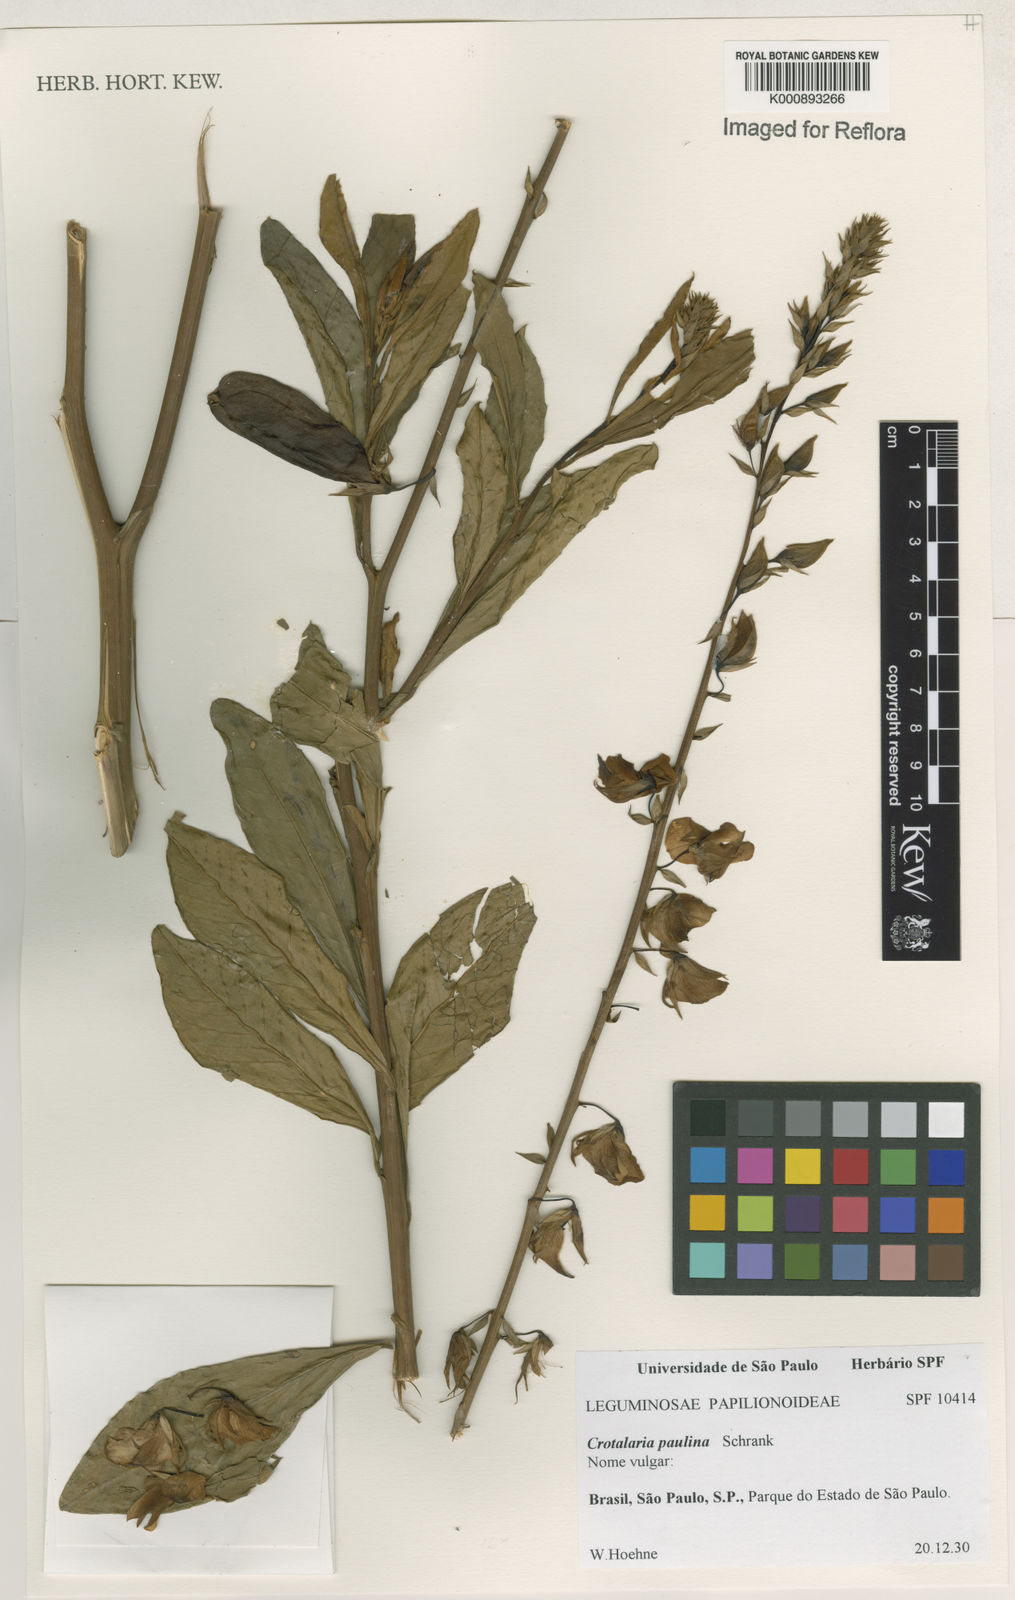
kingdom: Plantae
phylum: Tracheophyta
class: Magnoliopsida
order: Fabales
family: Fabaceae
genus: Crotalaria
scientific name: Crotalaria paulina
